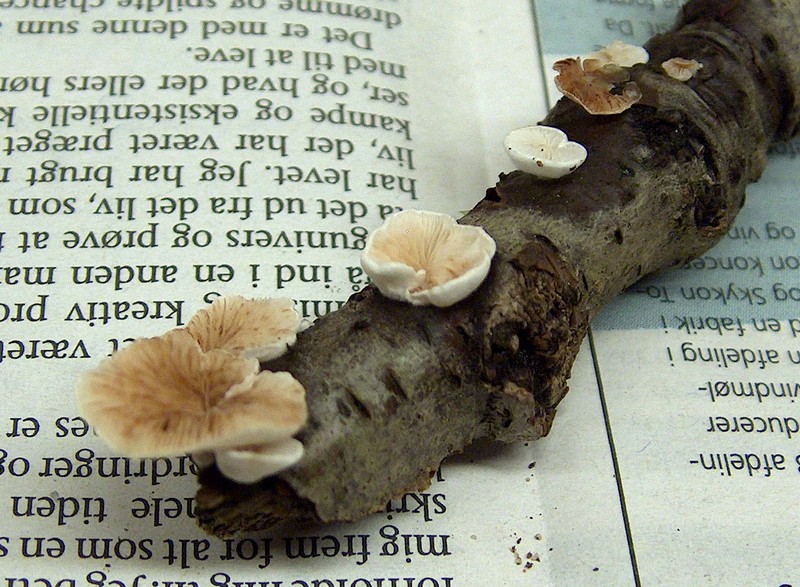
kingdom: Fungi
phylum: Basidiomycota
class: Agaricomycetes
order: Agaricales
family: Crepidotaceae
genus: Crepidotus
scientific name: Crepidotus variabilis
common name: forskelligformet muslingesvamp
